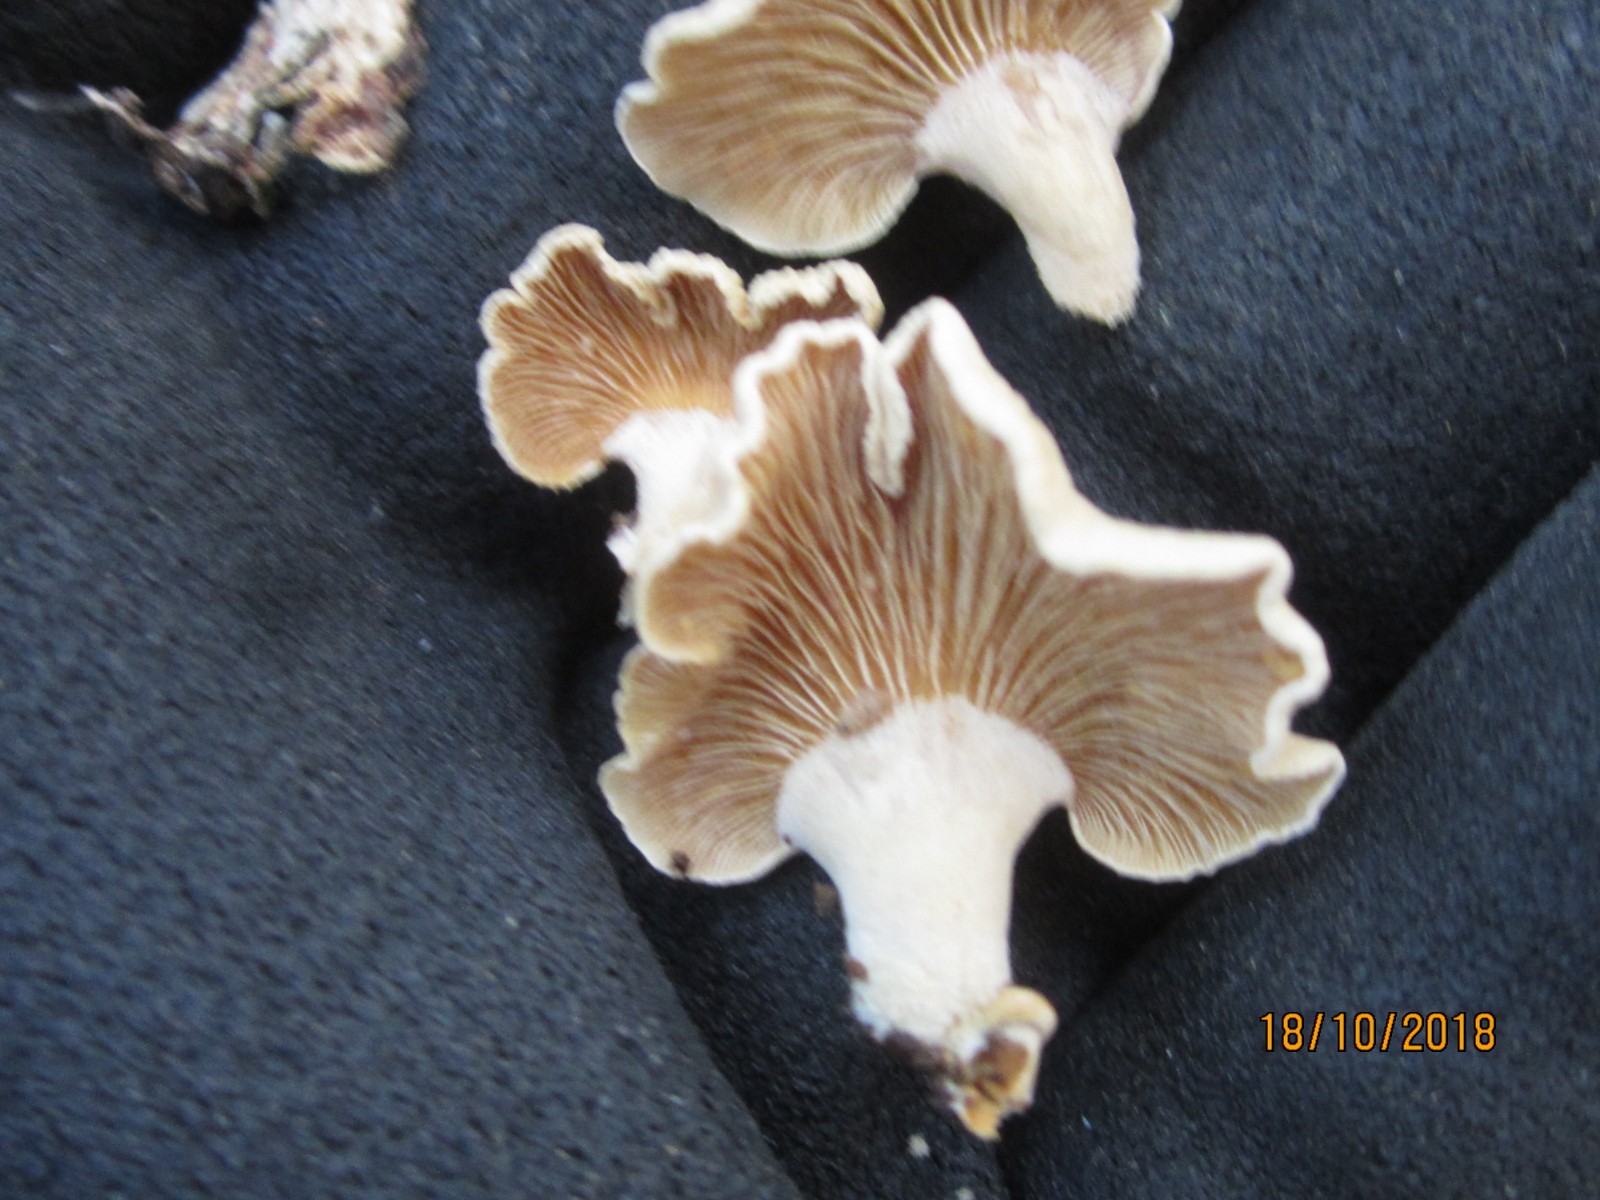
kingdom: Fungi
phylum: Basidiomycota
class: Agaricomycetes
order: Agaricales
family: Mycenaceae
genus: Panellus
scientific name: Panellus stipticus
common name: kliddet epaulethat
